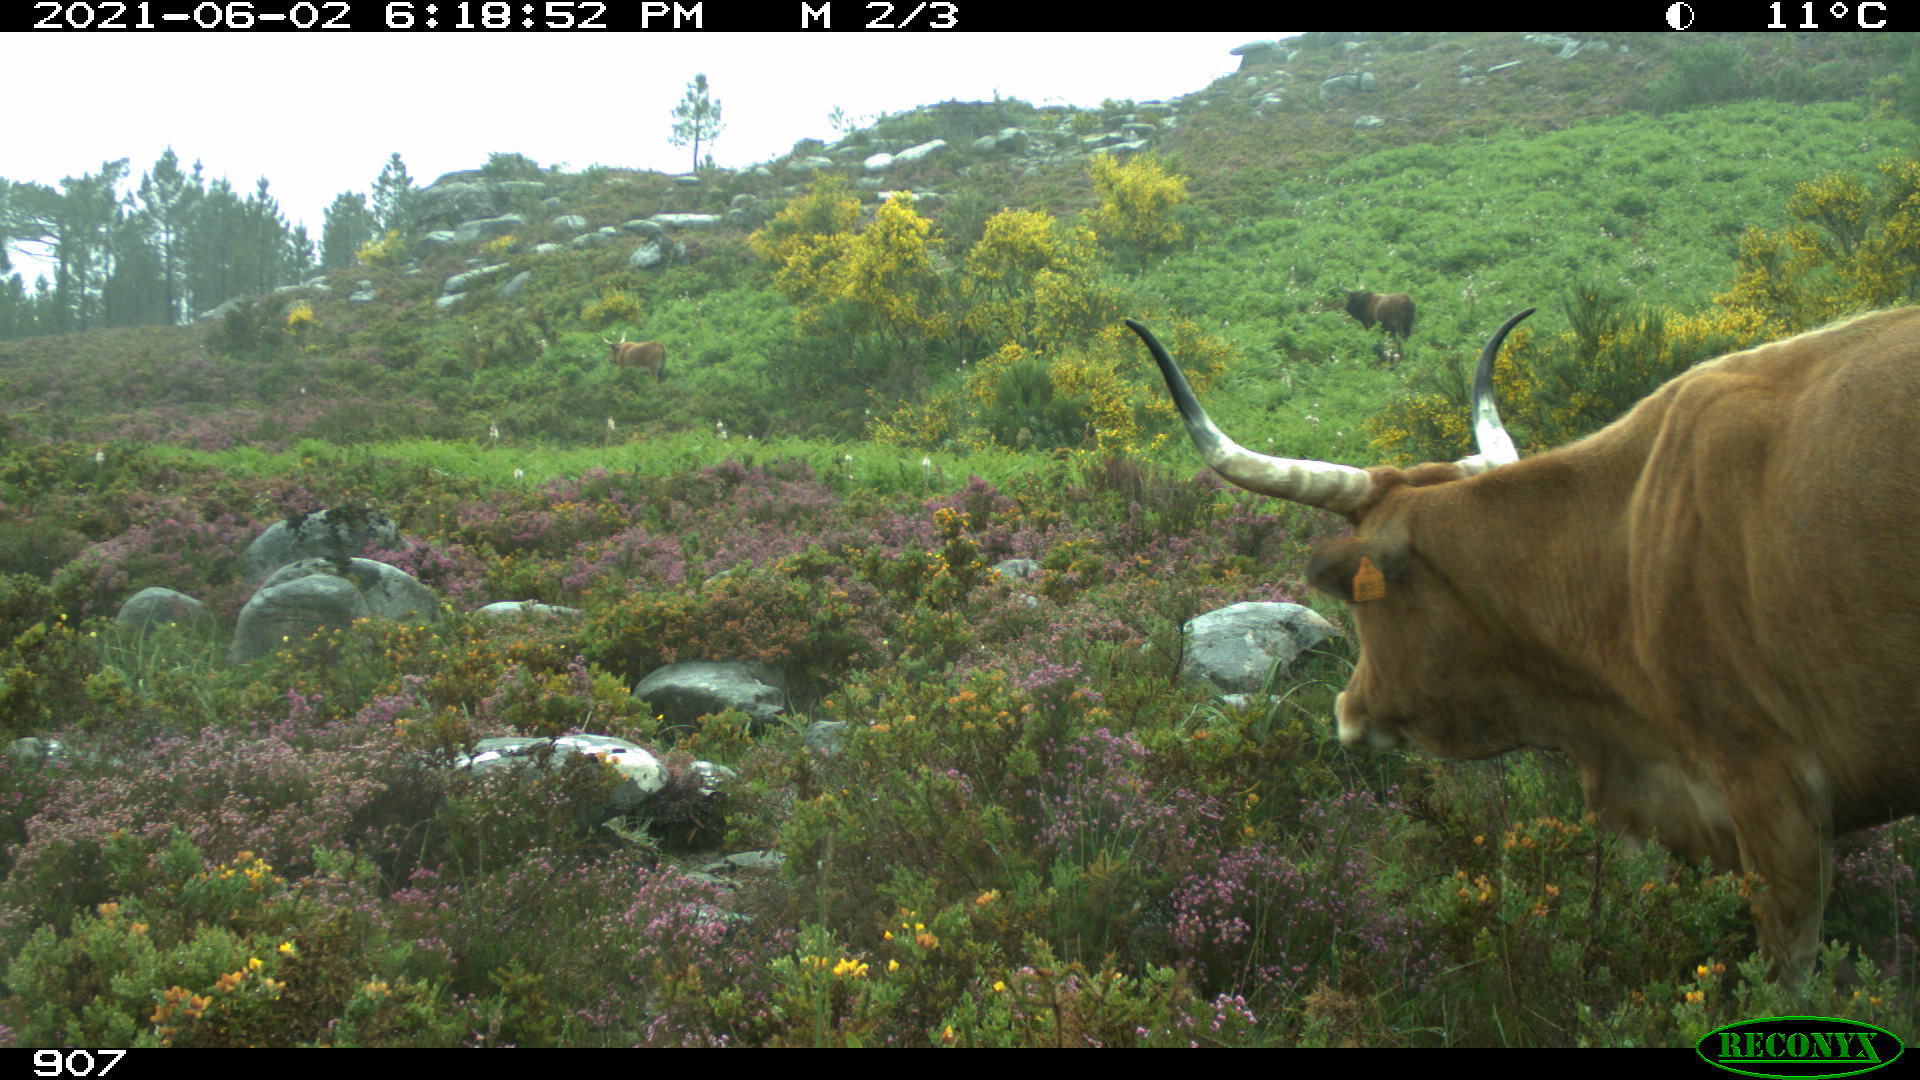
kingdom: Animalia
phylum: Chordata
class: Mammalia
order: Artiodactyla
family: Bovidae
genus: Bos
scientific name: Bos taurus
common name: Domesticated cattle
